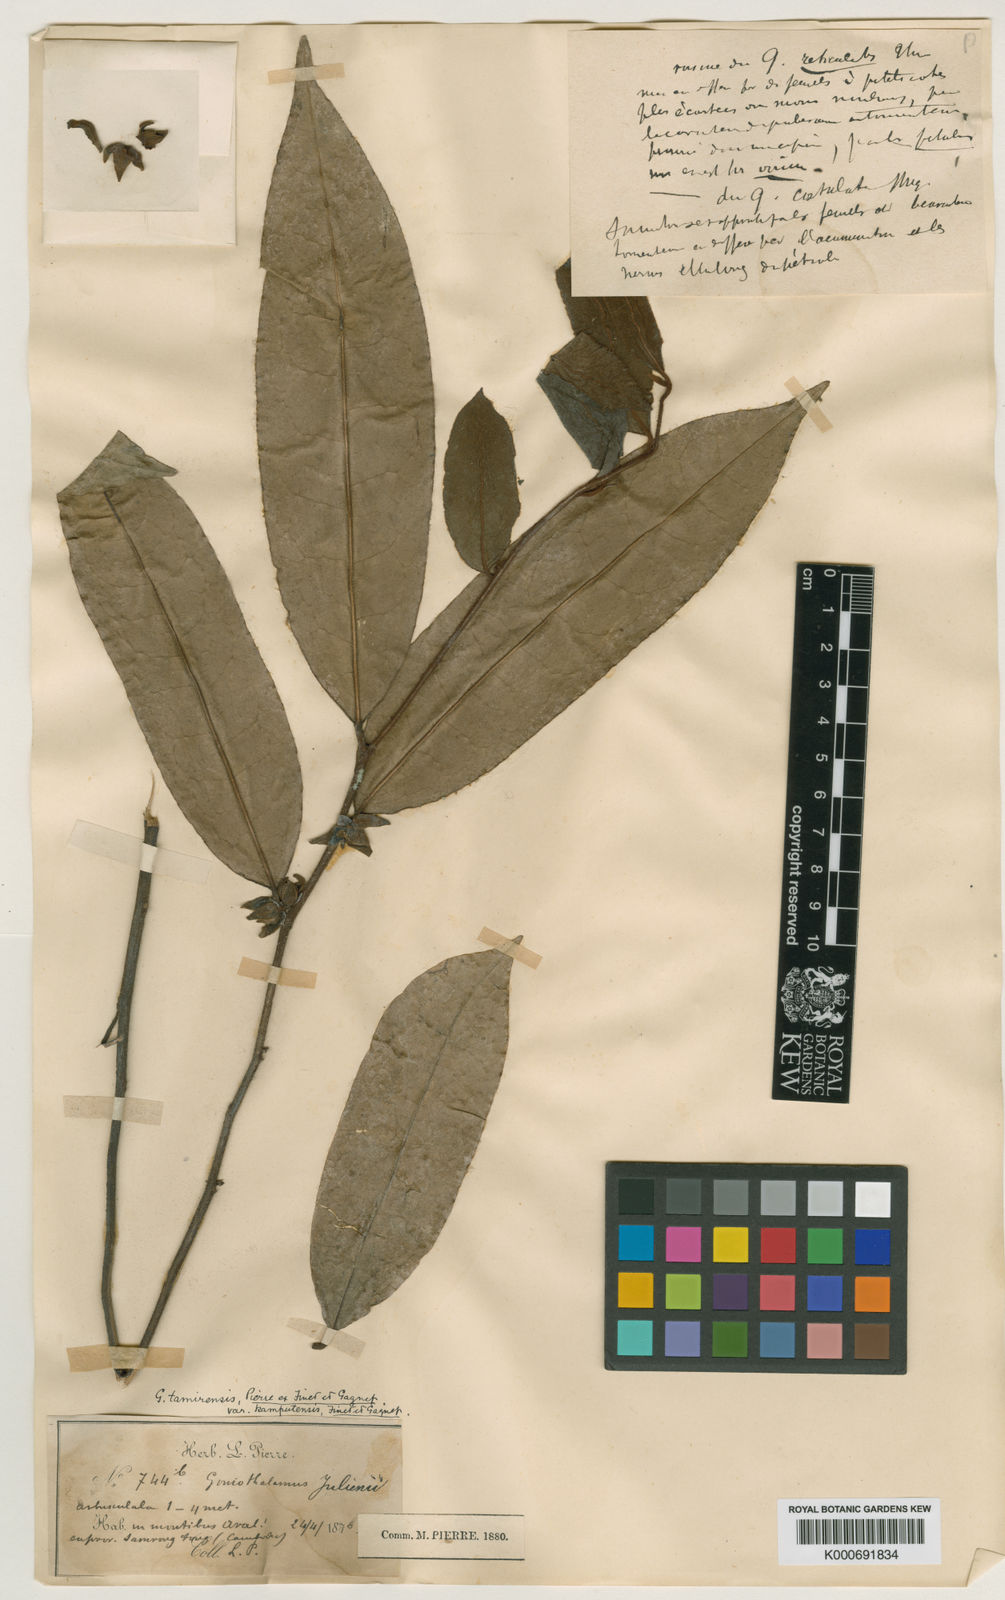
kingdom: Plantae
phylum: Tracheophyta
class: Magnoliopsida
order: Magnoliales
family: Annonaceae
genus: Goniothalamus
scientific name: Goniothalamus tamirensis
